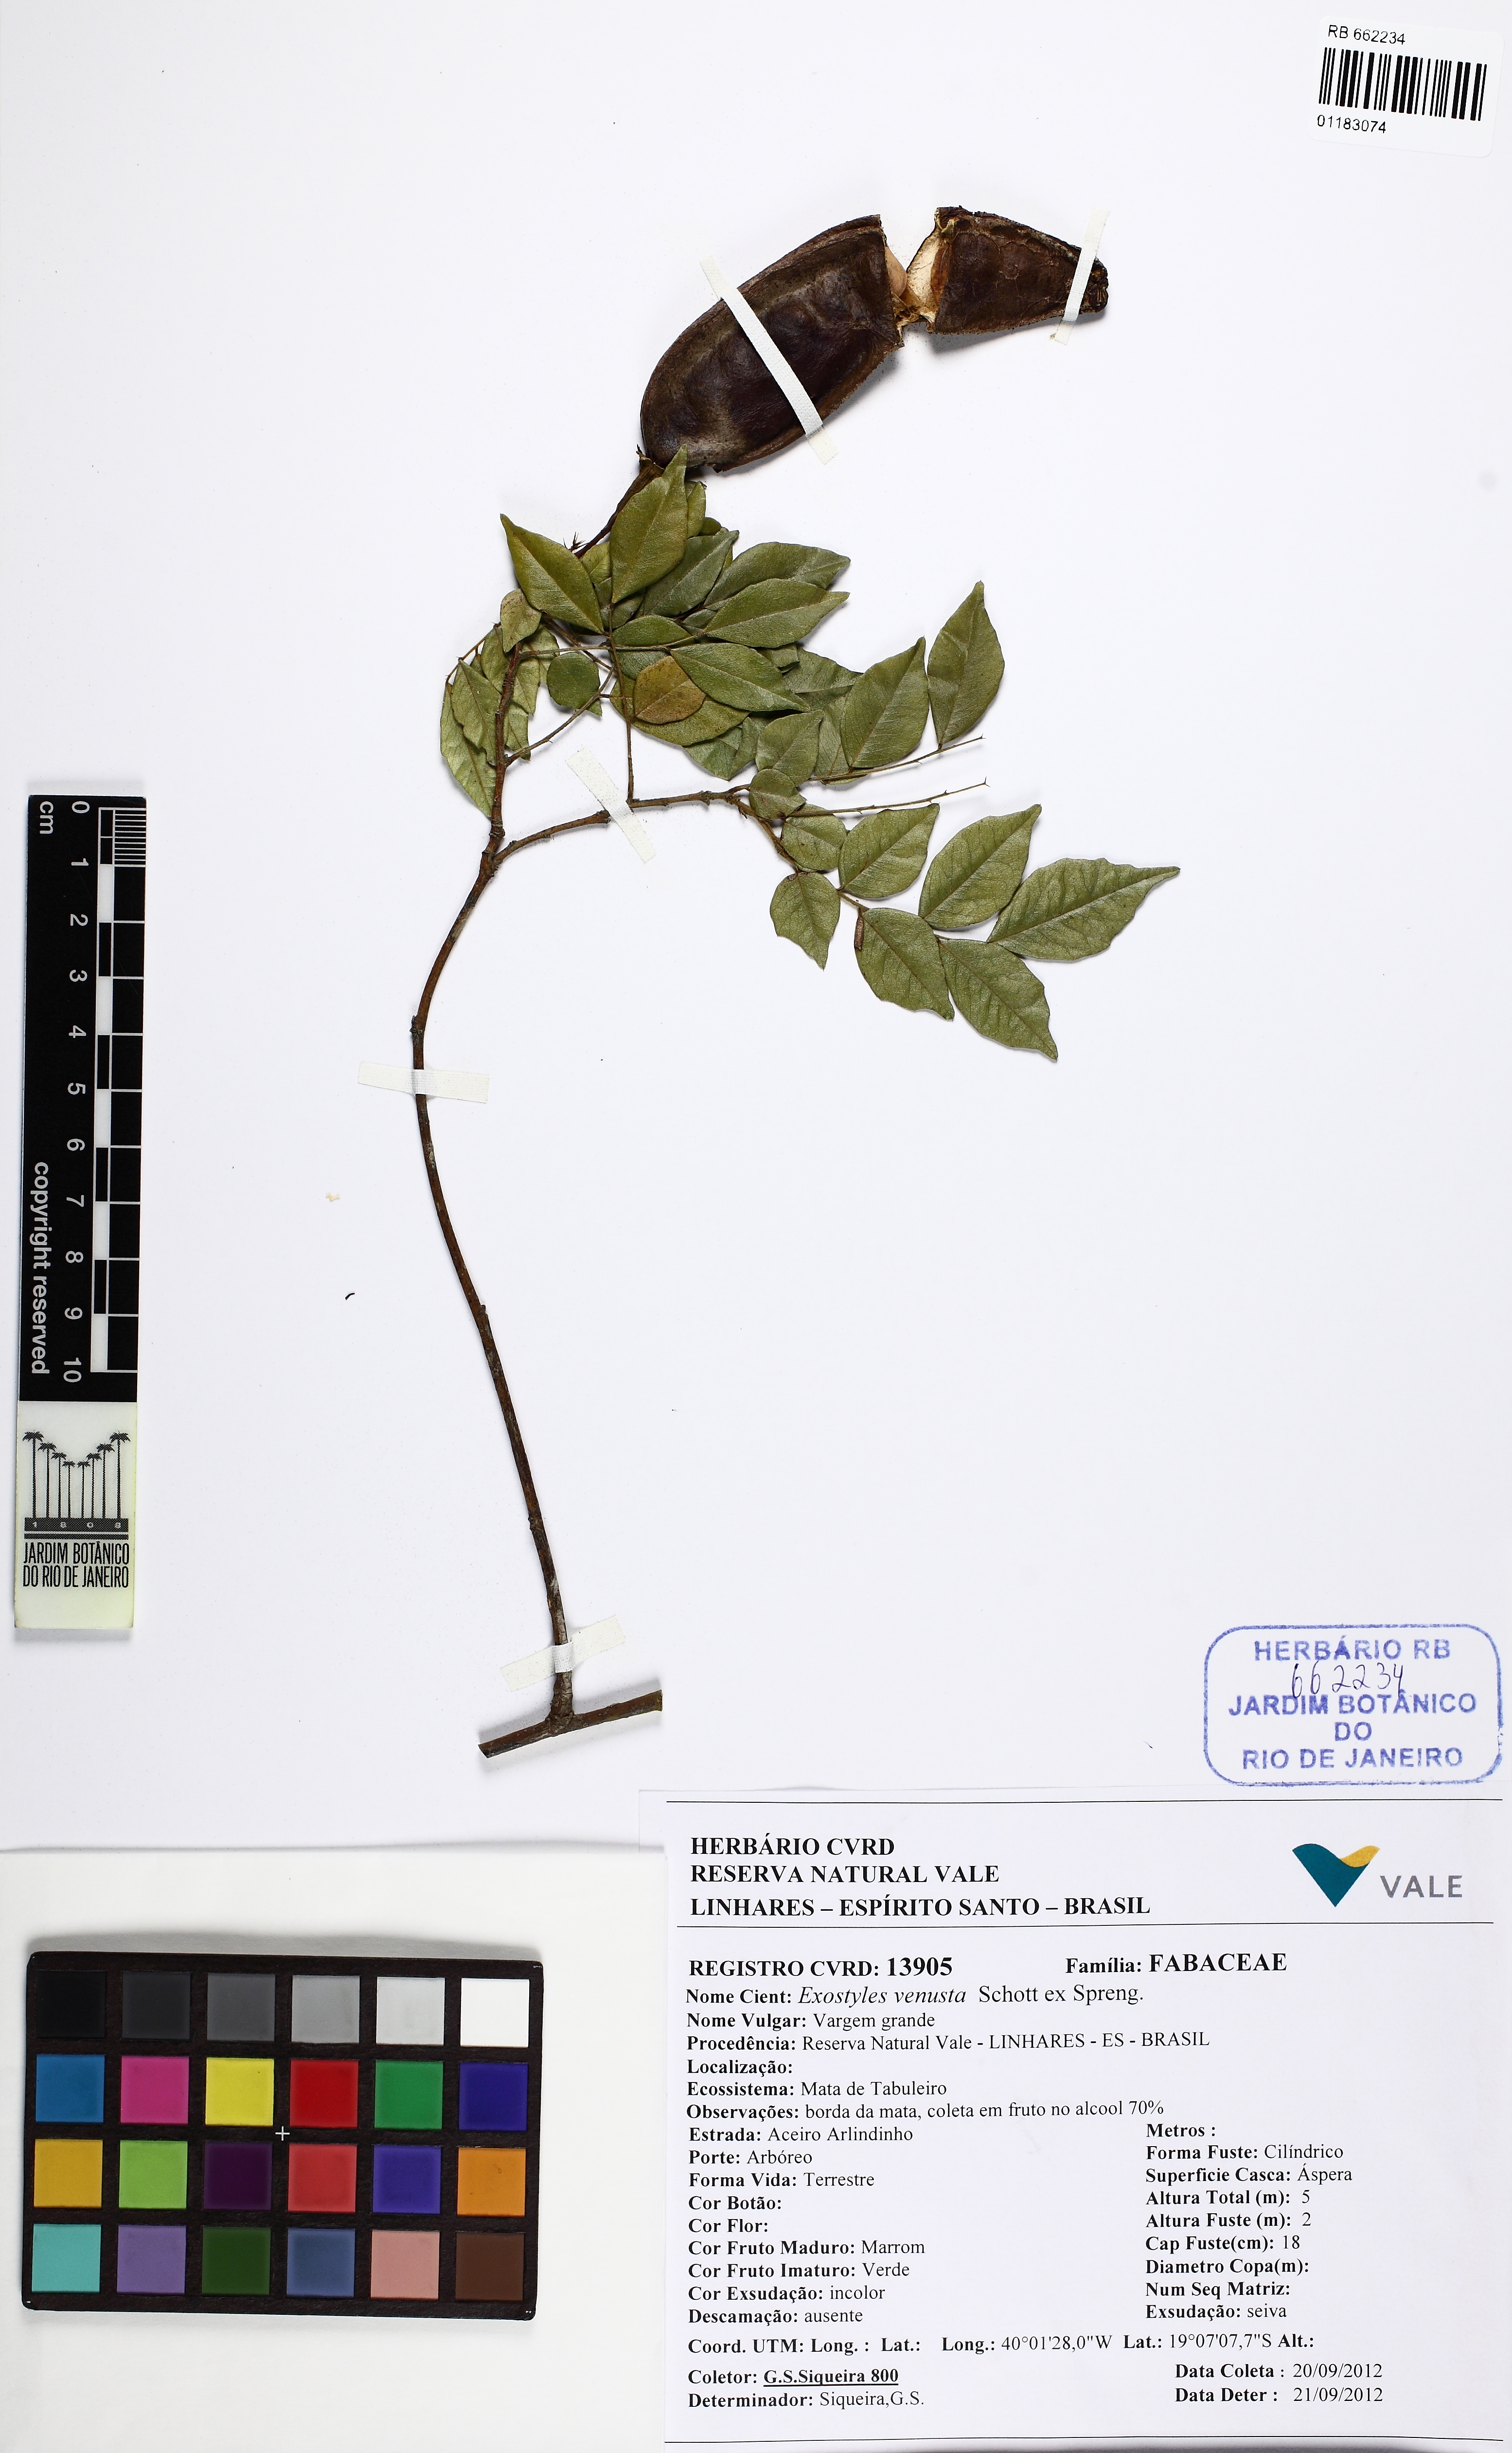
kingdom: Plantae
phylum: Tracheophyta
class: Magnoliopsida
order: Fabales
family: Fabaceae
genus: Exostyles
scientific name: Exostyles venusta
